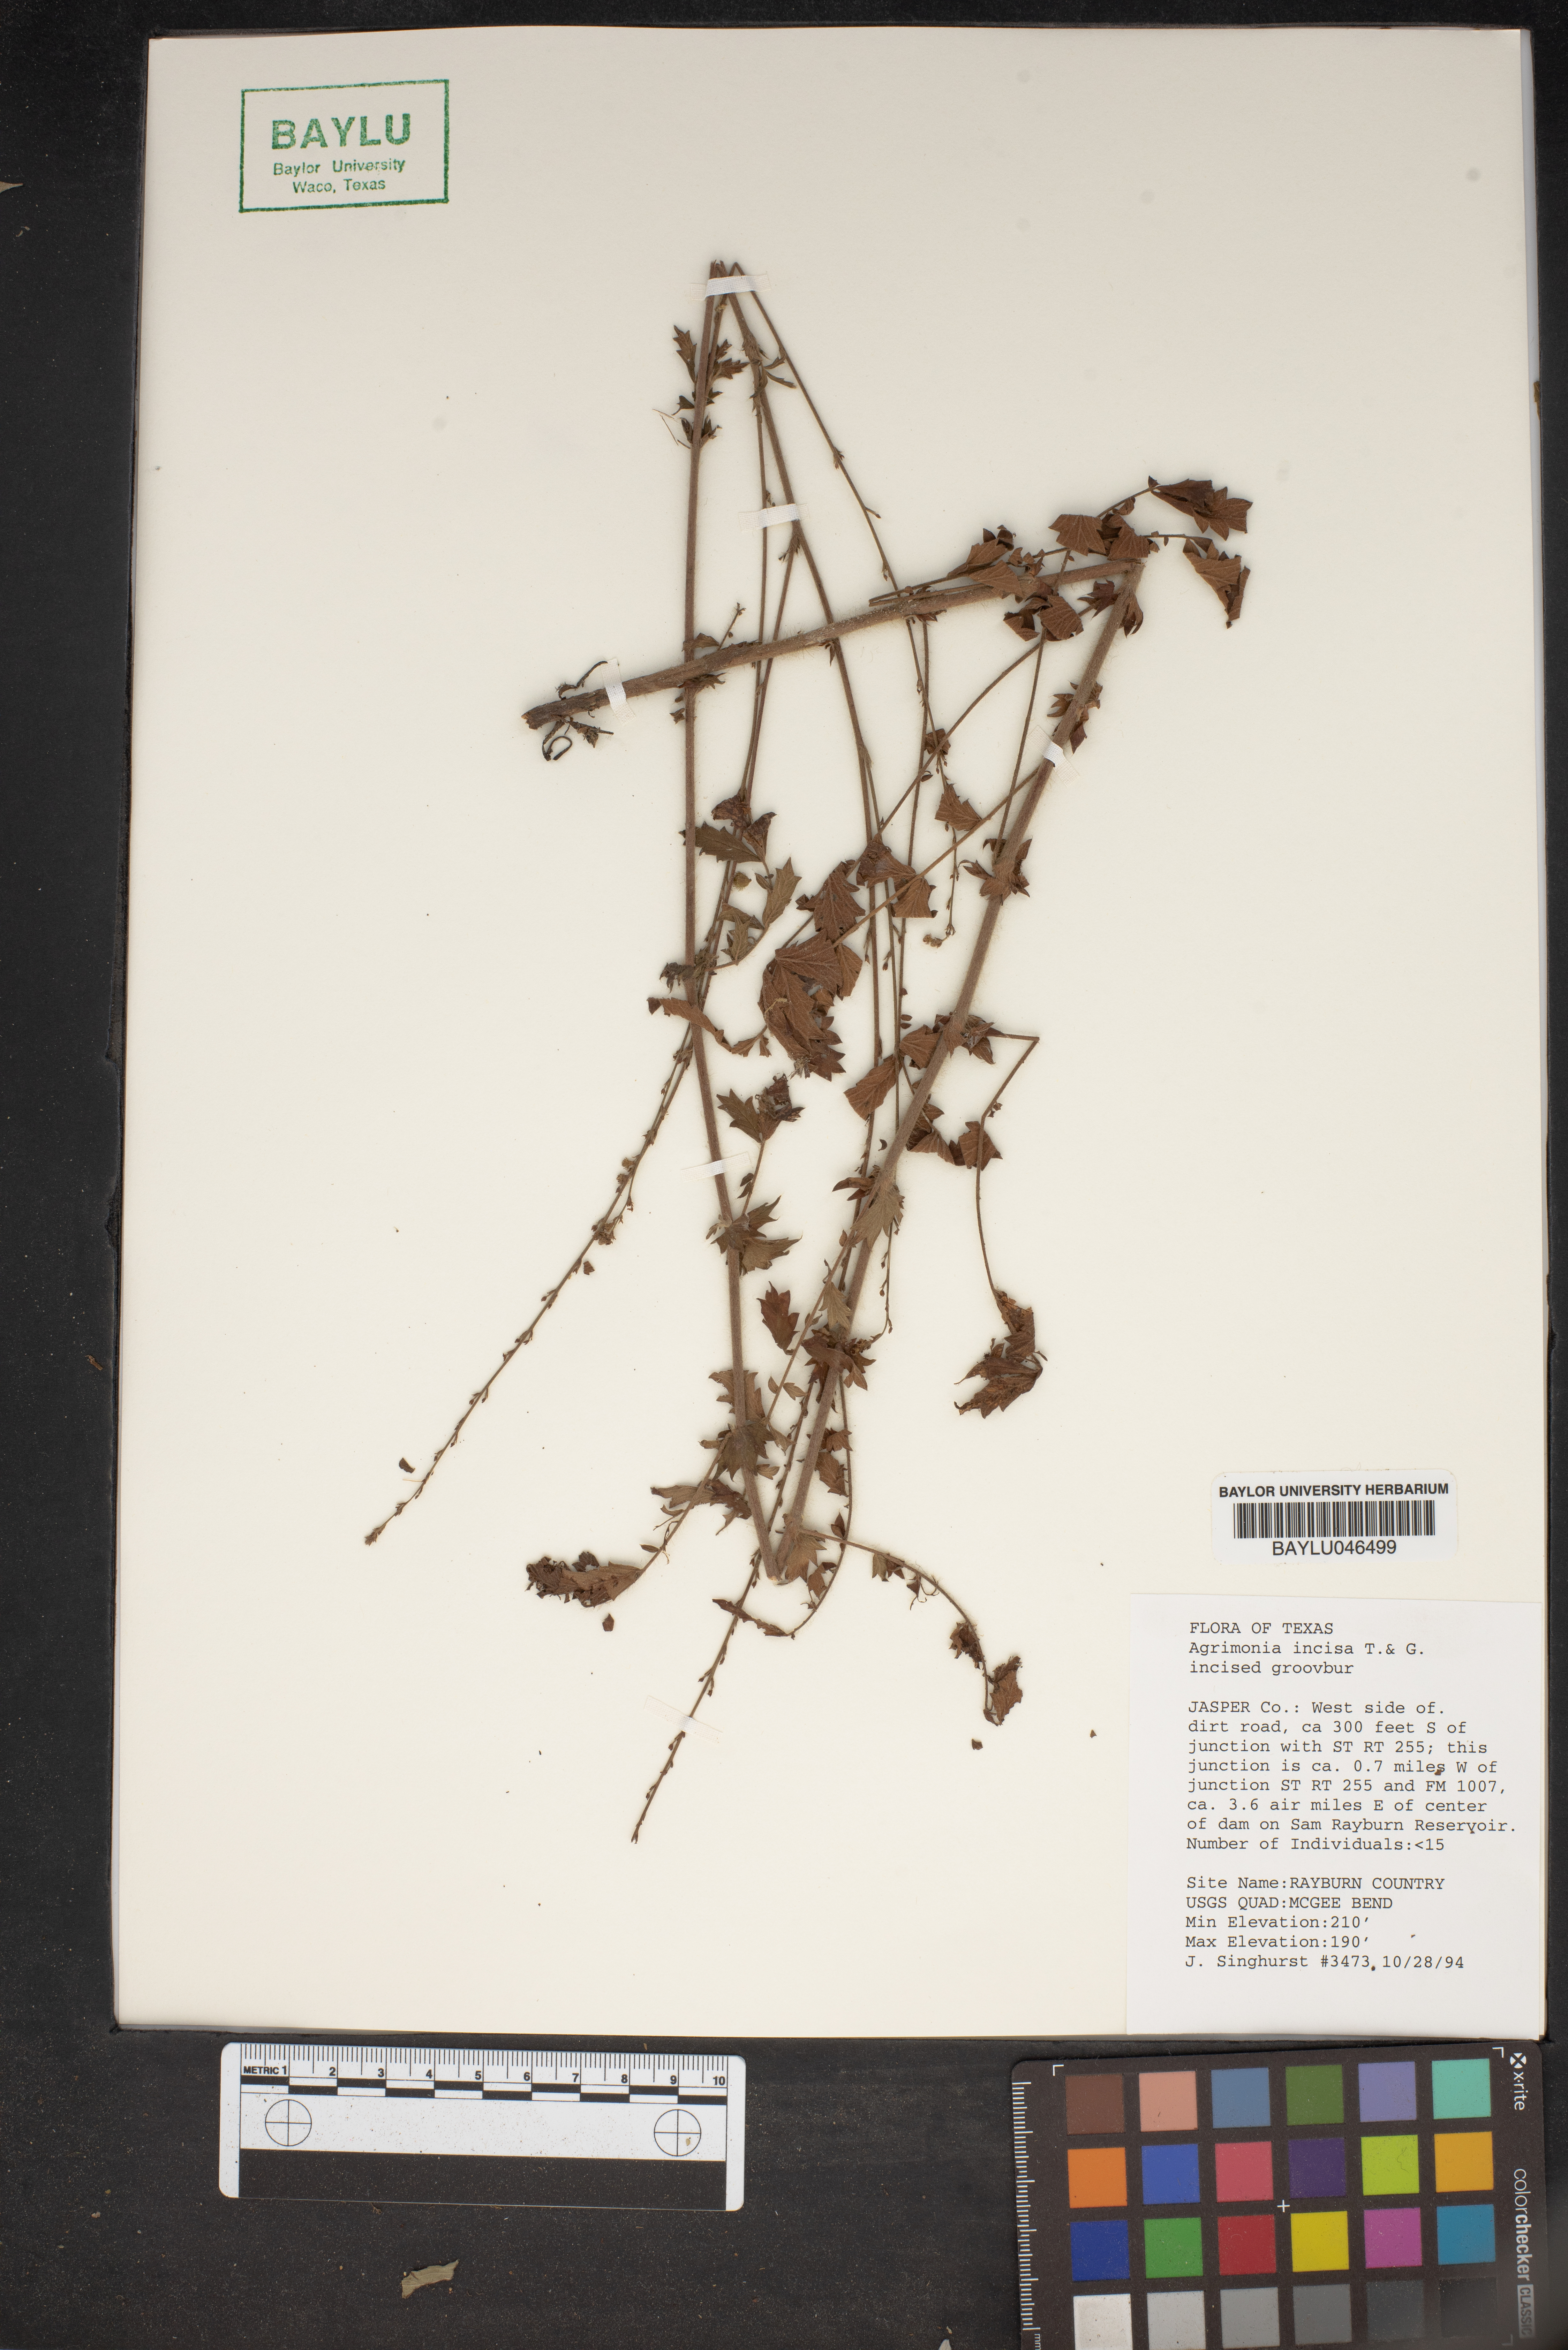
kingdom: Plantae
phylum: Tracheophyta
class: Magnoliopsida
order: Rosales
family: Rosaceae
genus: Agrimonia
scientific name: Agrimonia incisa
